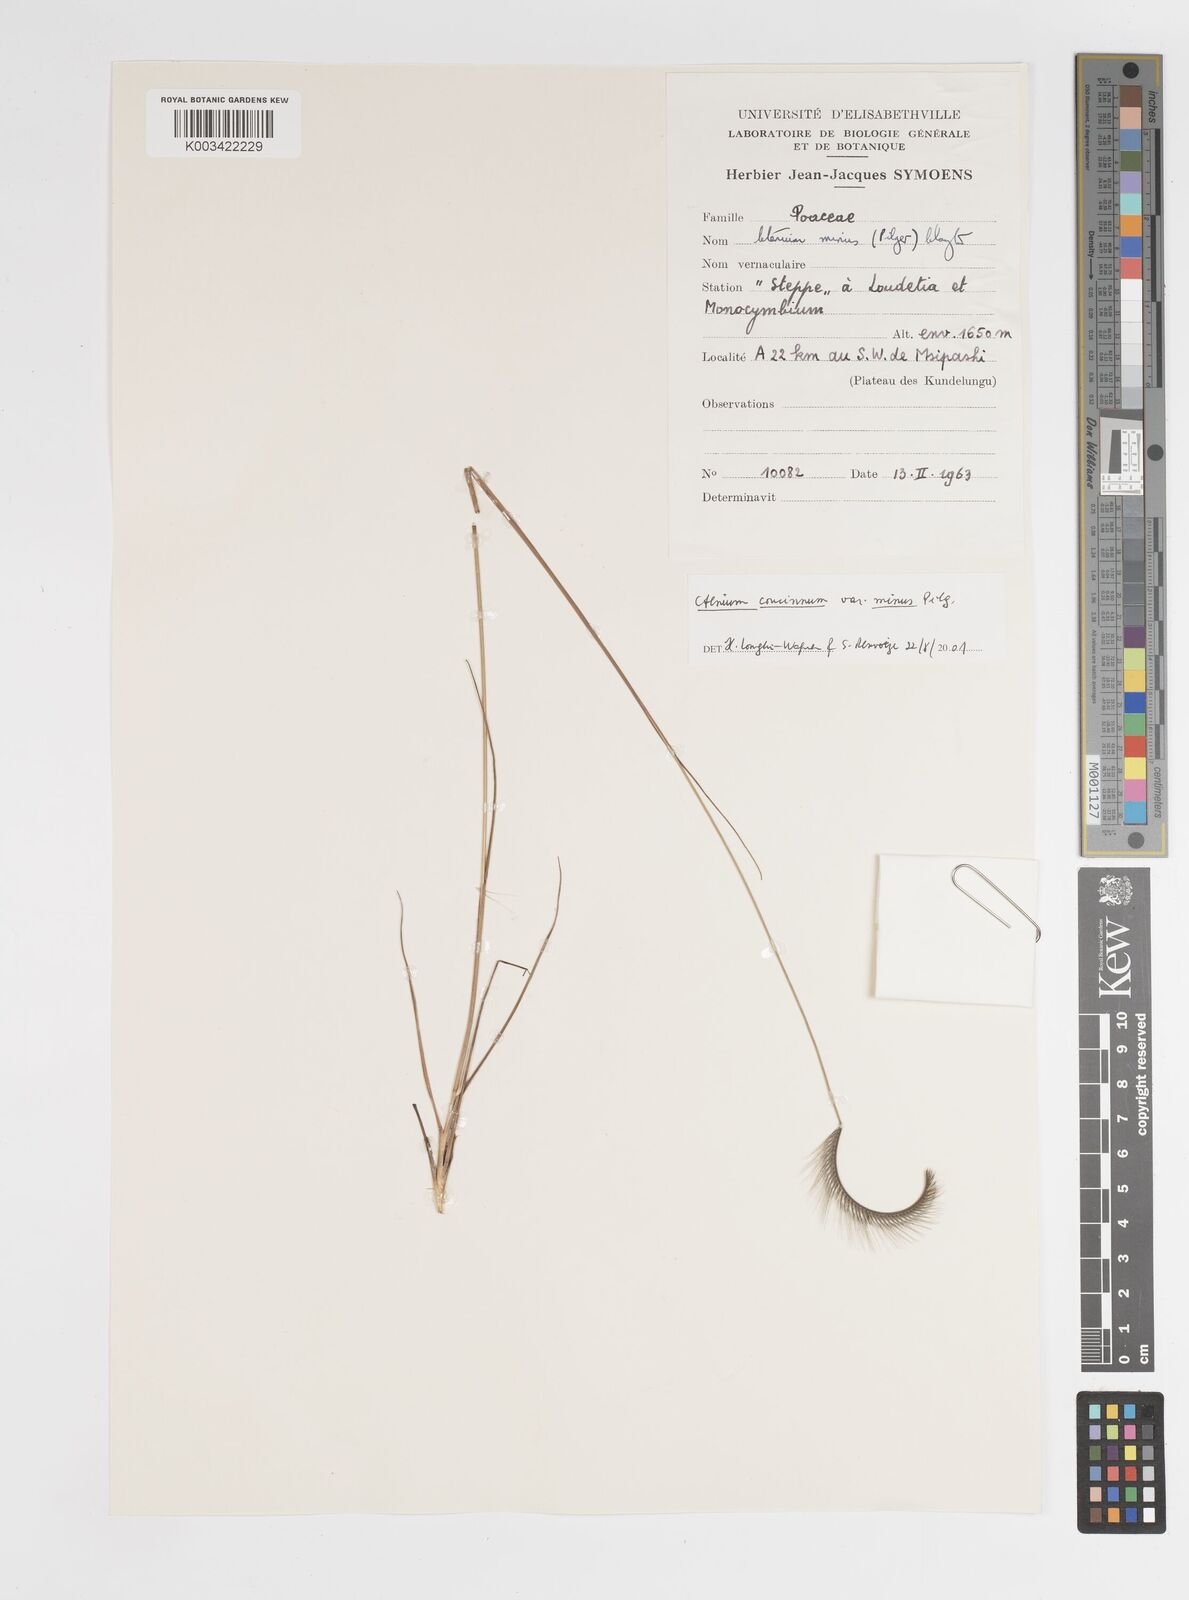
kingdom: Plantae
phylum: Tracheophyta
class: Liliopsida
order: Poales
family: Poaceae
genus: Ctenium
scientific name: Ctenium concinnum
